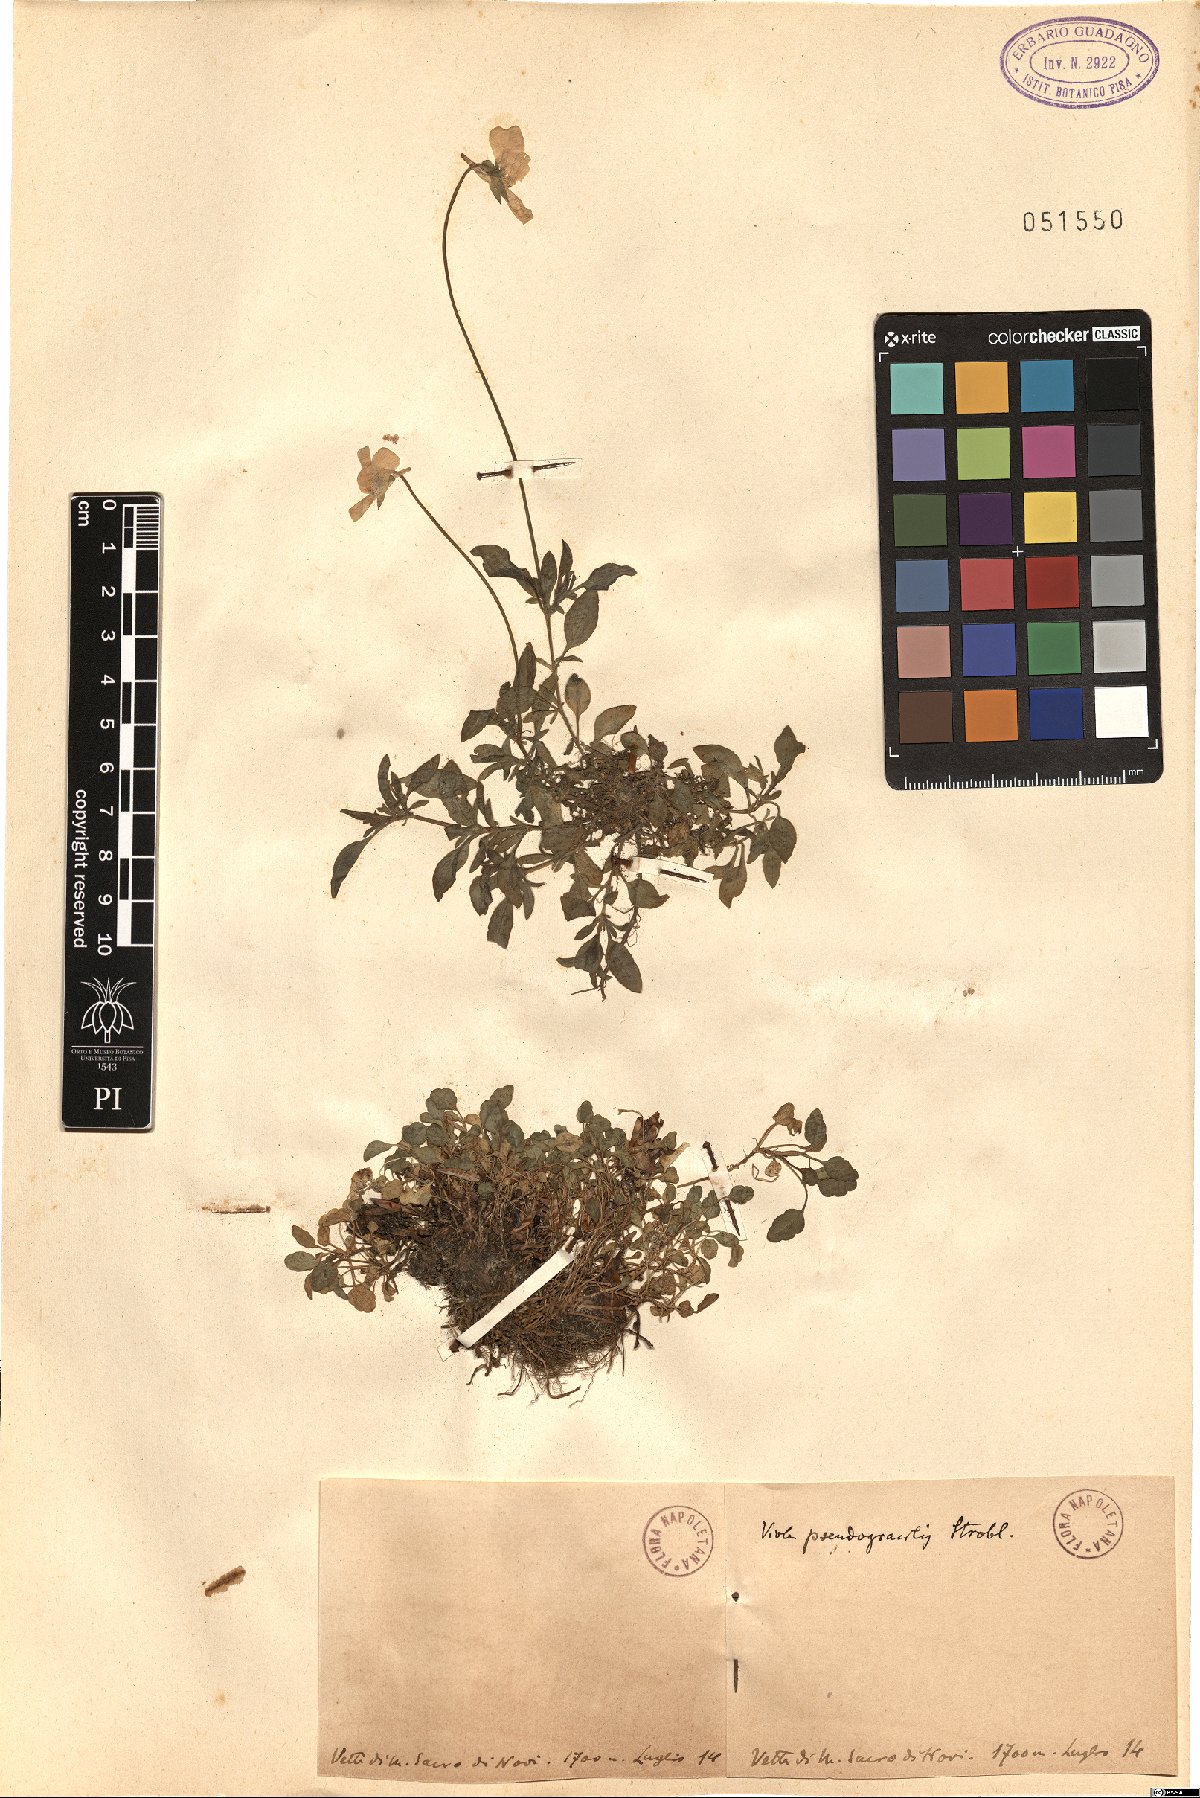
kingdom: Plantae
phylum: Tracheophyta
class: Magnoliopsida
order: Malpighiales
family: Violaceae
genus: Viola
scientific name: Viola pseudogracilis
